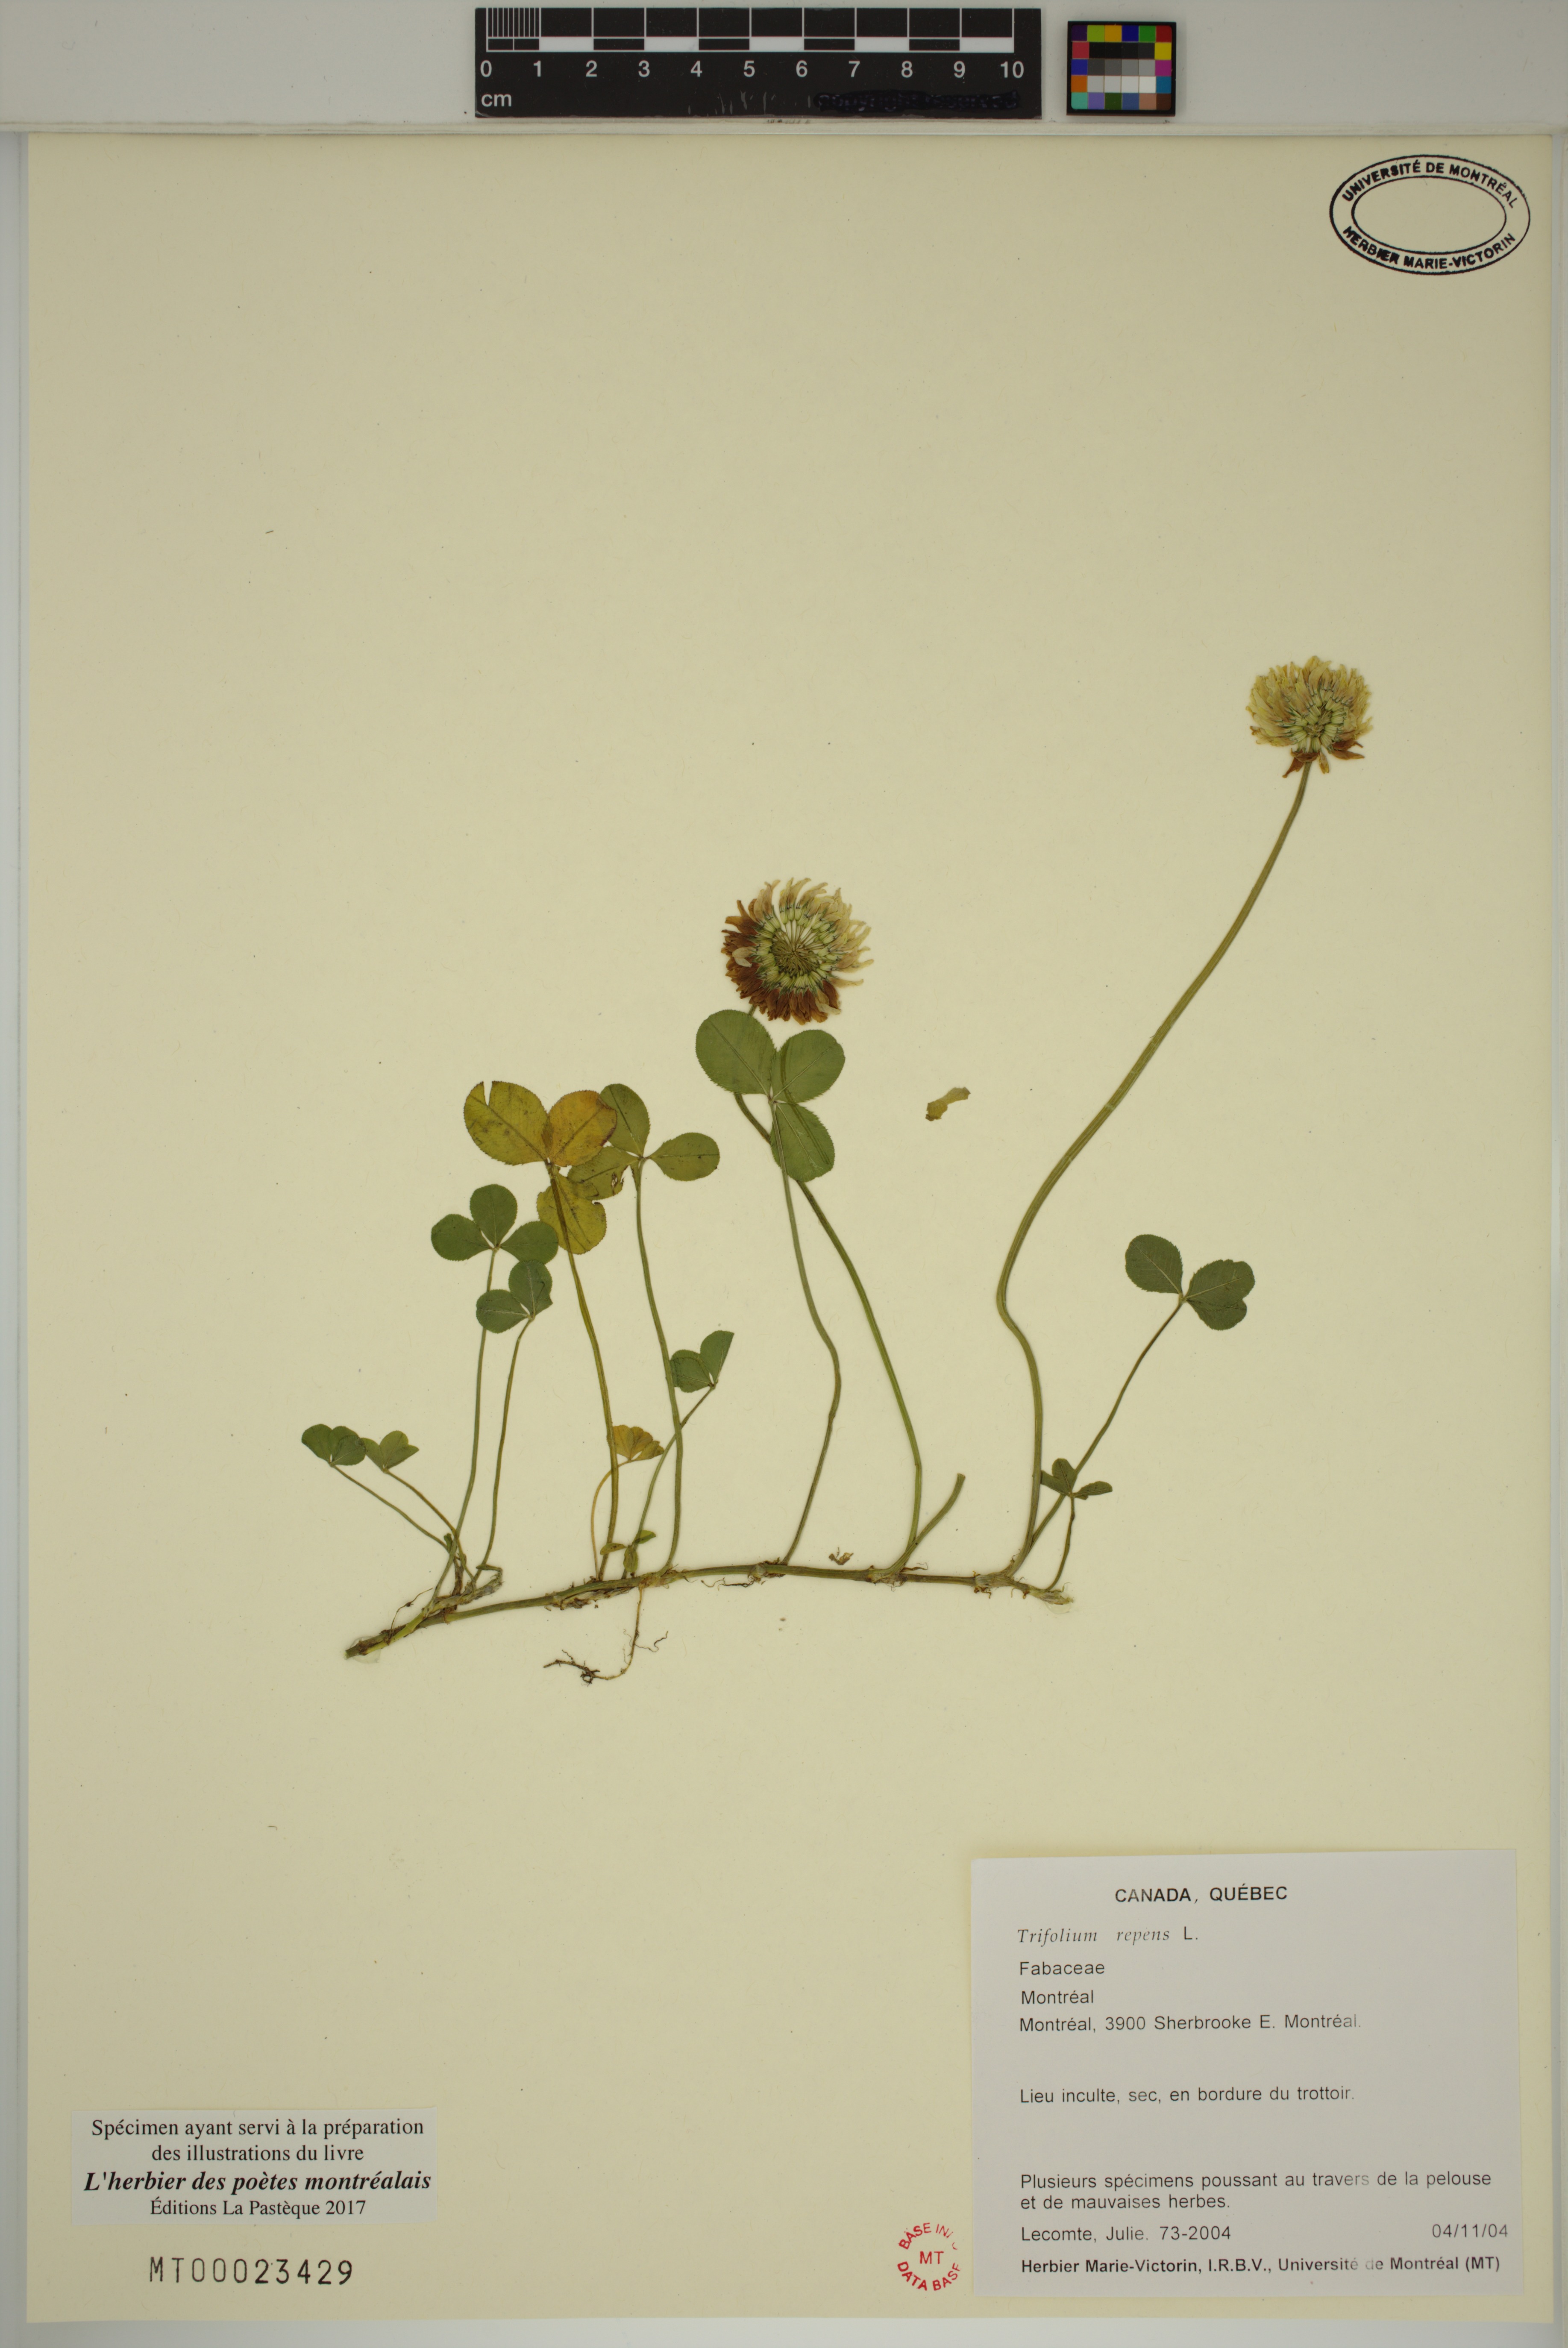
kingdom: Plantae
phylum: Tracheophyta
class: Magnoliopsida
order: Fabales
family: Fabaceae
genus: Trifolium
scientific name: Trifolium repens
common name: White clover
